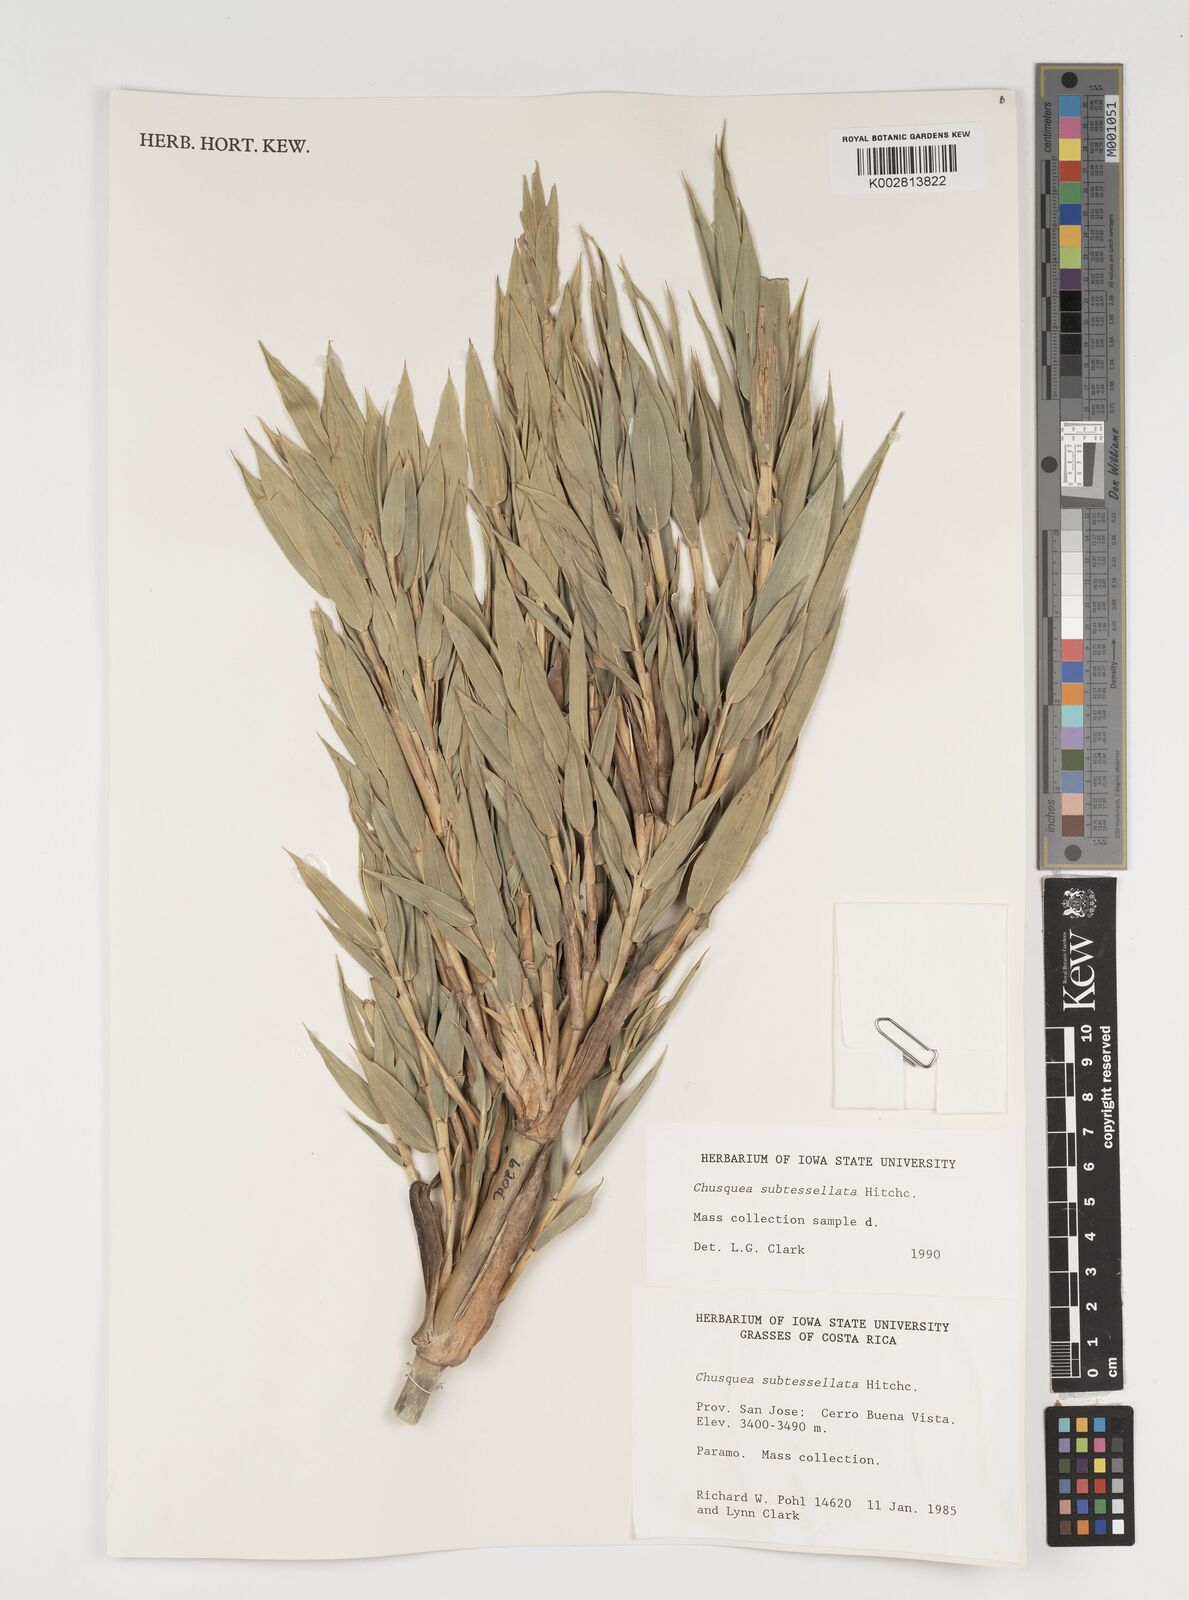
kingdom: Plantae
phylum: Tracheophyta
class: Liliopsida
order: Poales
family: Poaceae
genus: Chusquea
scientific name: Chusquea subtessellata
